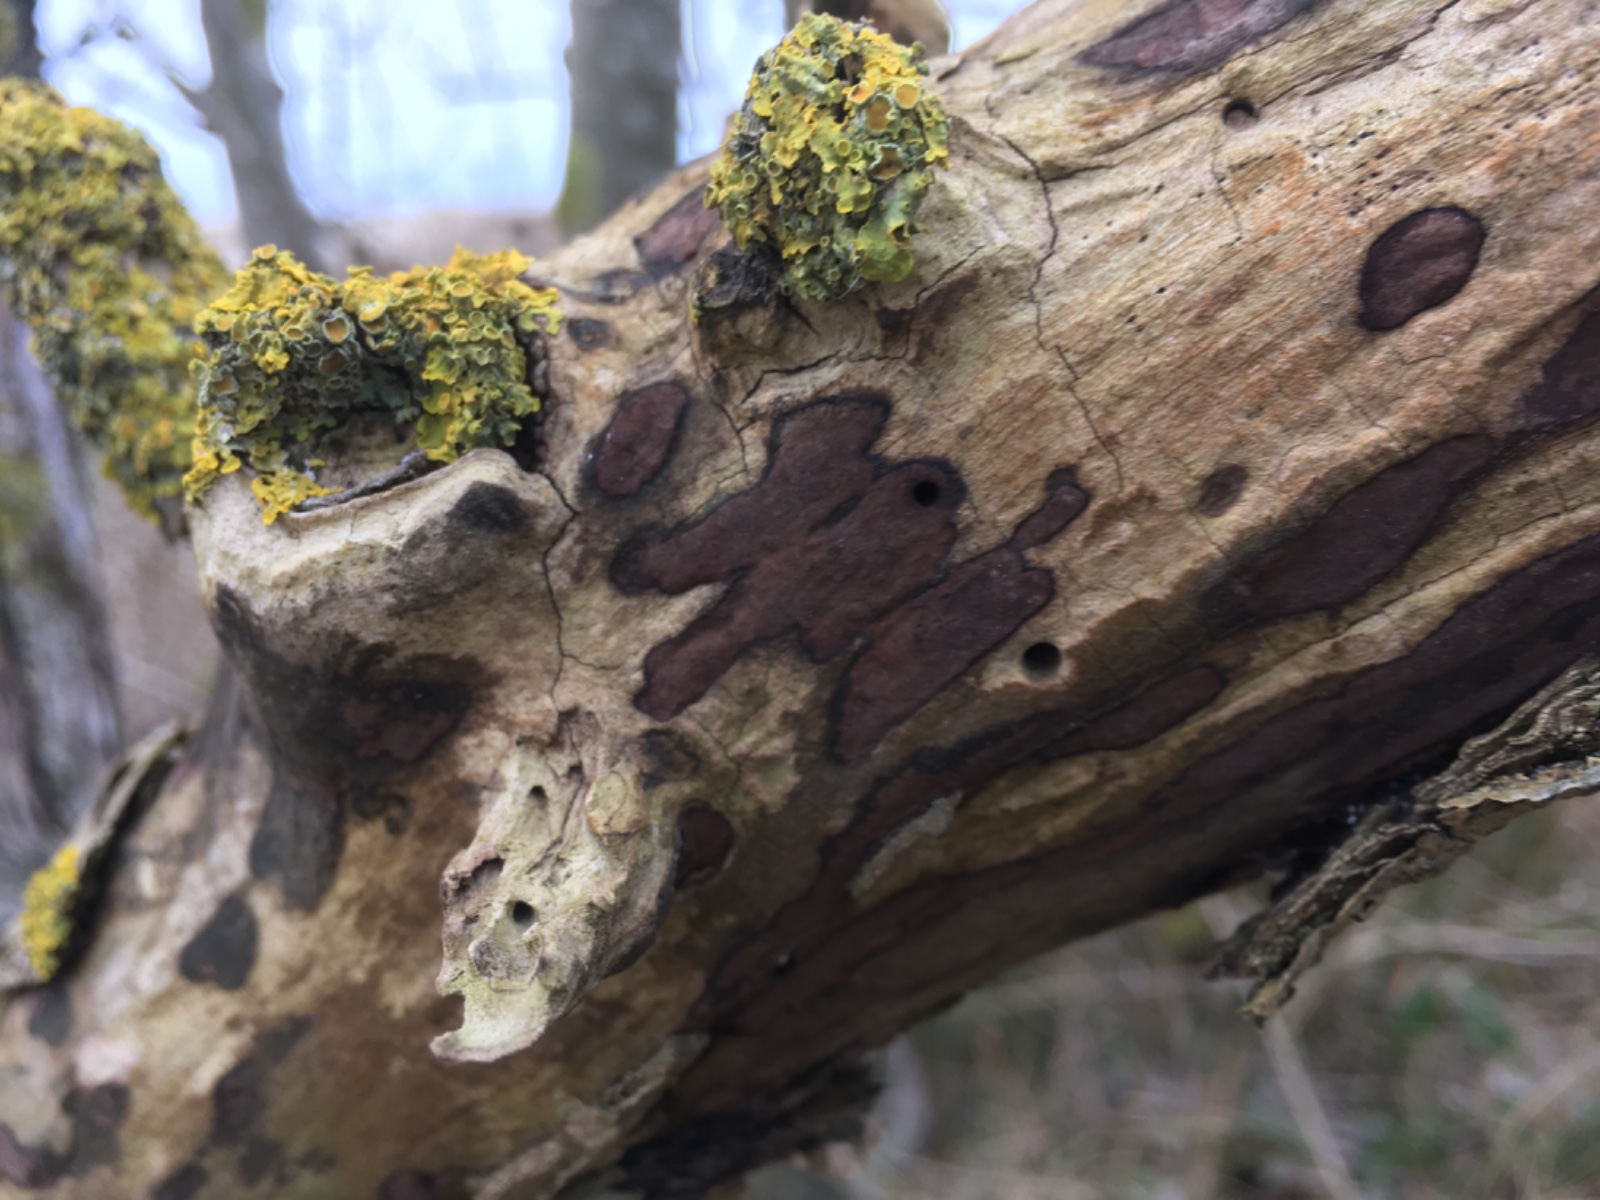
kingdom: Fungi
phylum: Ascomycota
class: Sordariomycetes
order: Xylariales
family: Hypoxylaceae
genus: Hypoxylon
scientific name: Hypoxylon petriniae
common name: nedsænket kulbær
